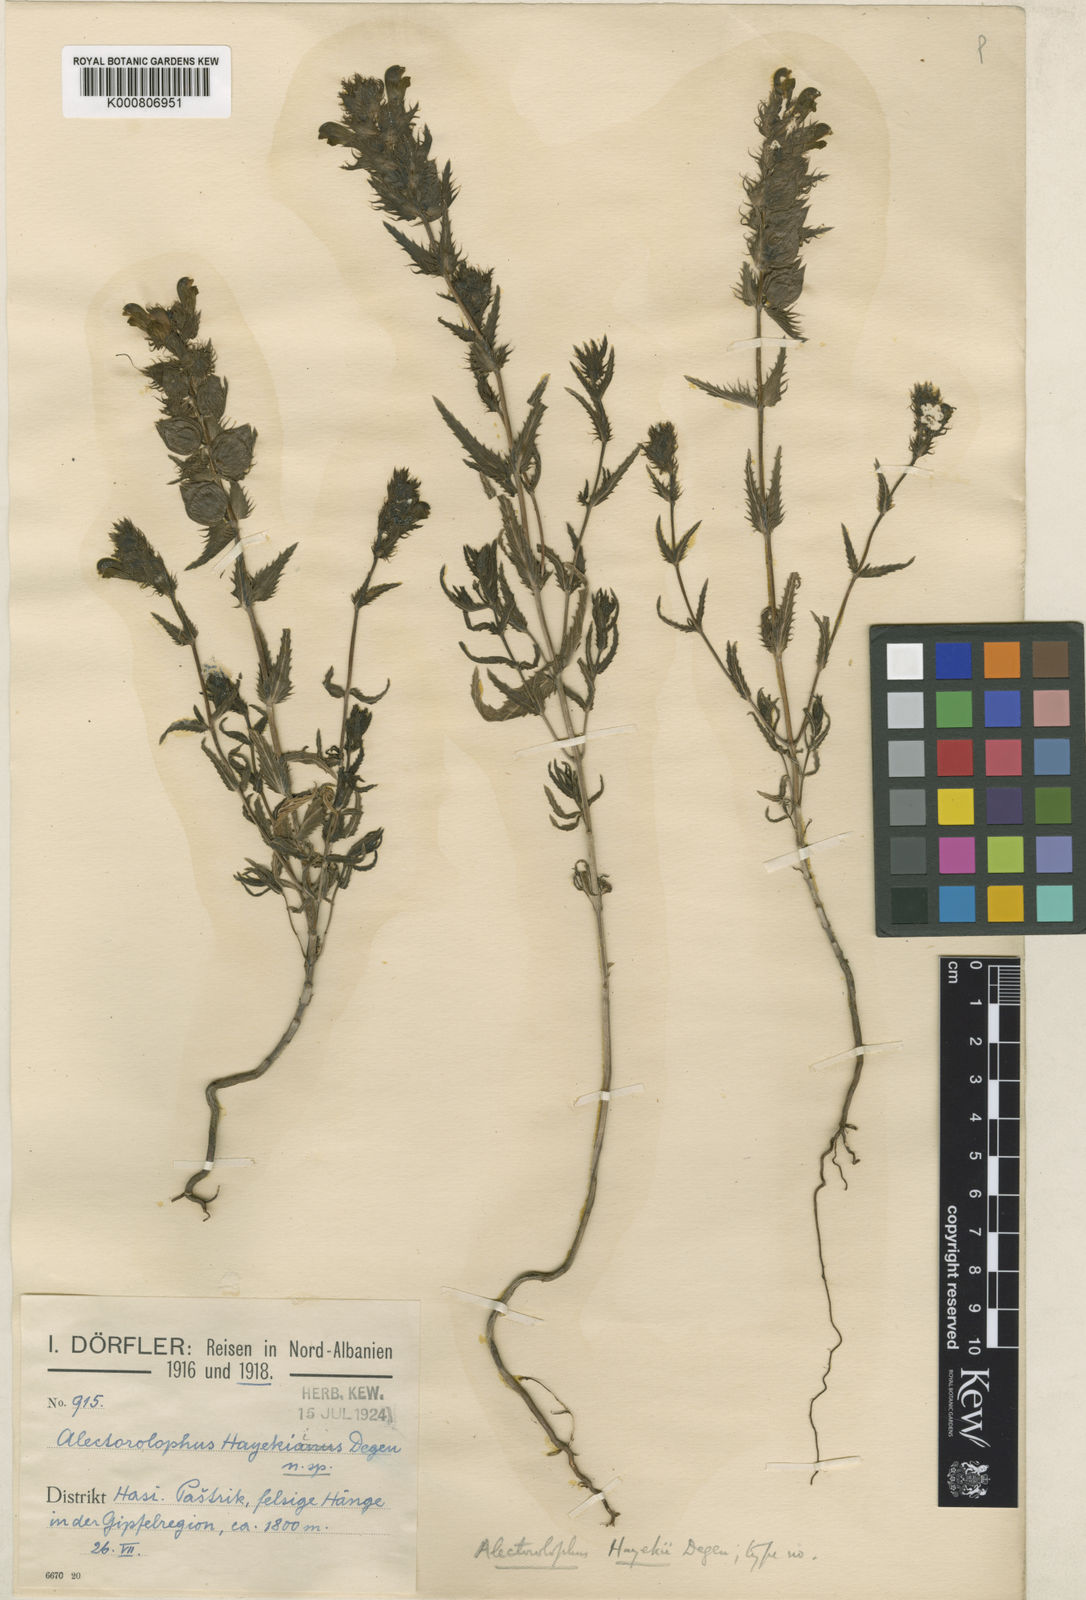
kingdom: Plantae
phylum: Tracheophyta
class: Magnoliopsida
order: Lamiales
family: Orobanchaceae
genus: Rhinanthus
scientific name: Rhinanthus melampyroides
